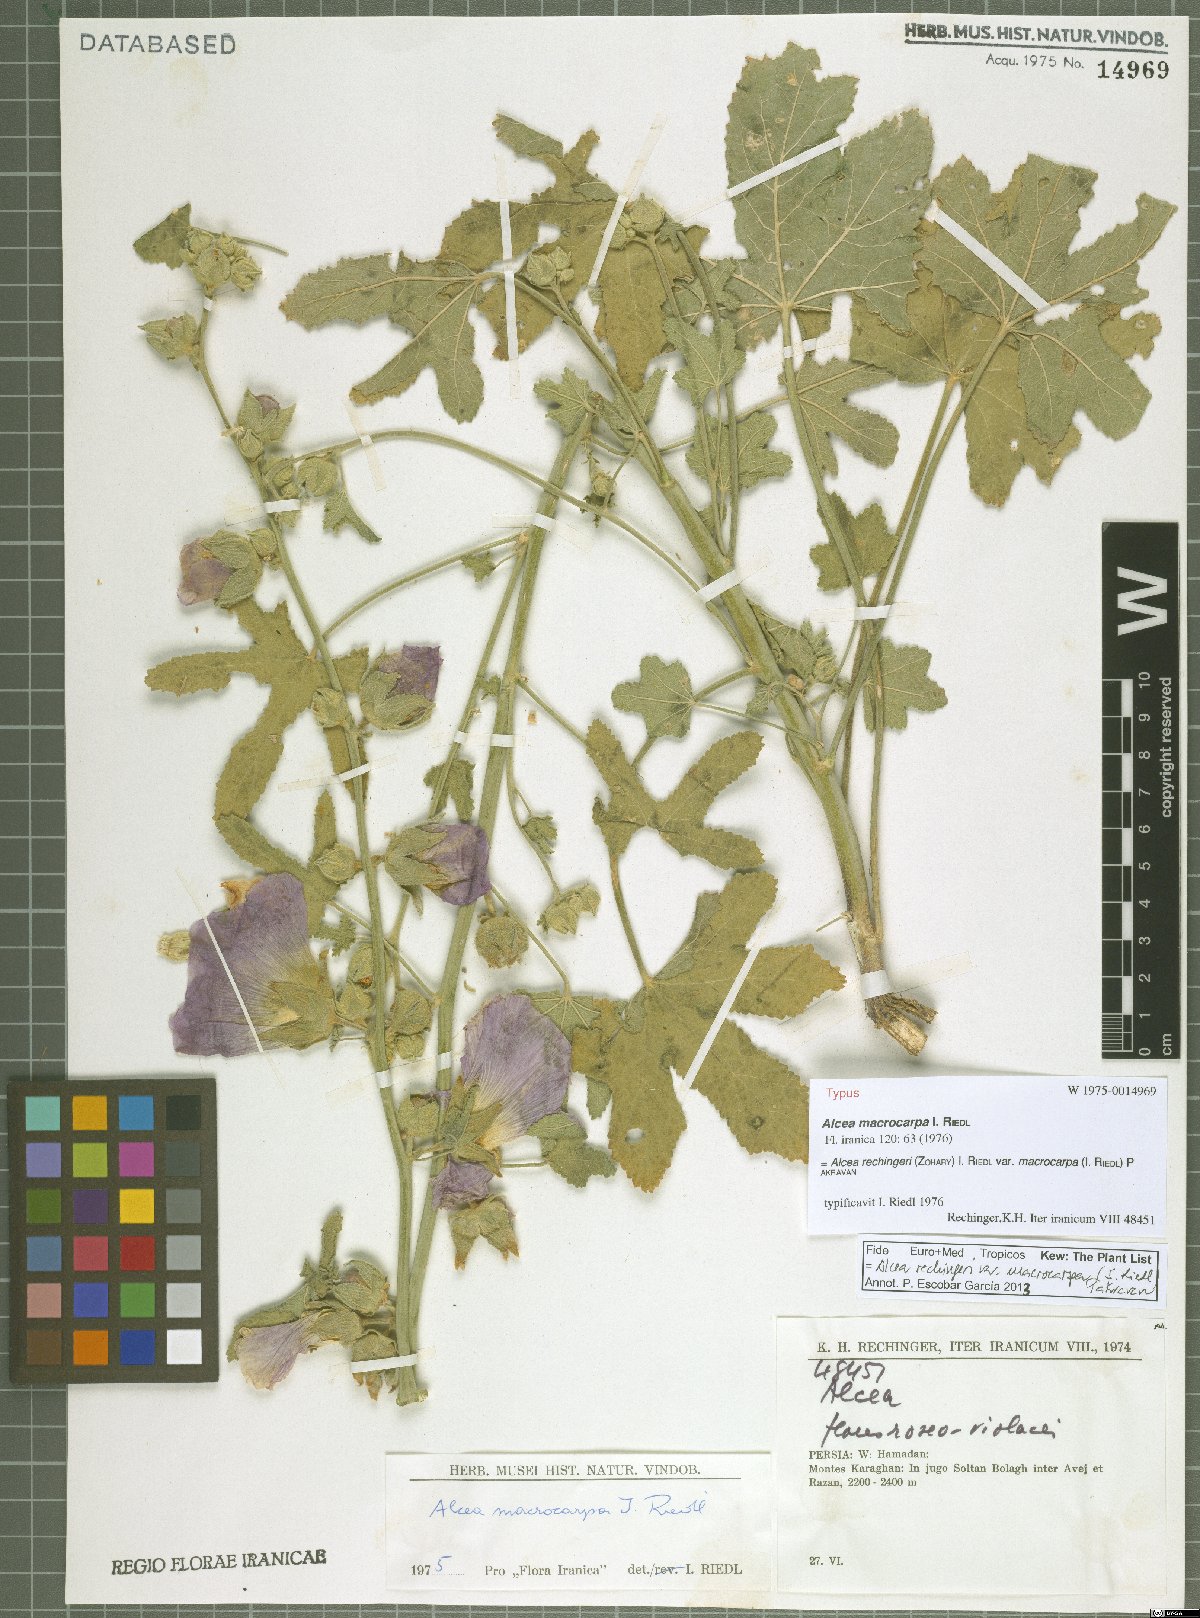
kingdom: Plantae
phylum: Tracheophyta
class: Magnoliopsida
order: Malvales
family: Malvaceae
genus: Alcea
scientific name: Alcea rechingeri
